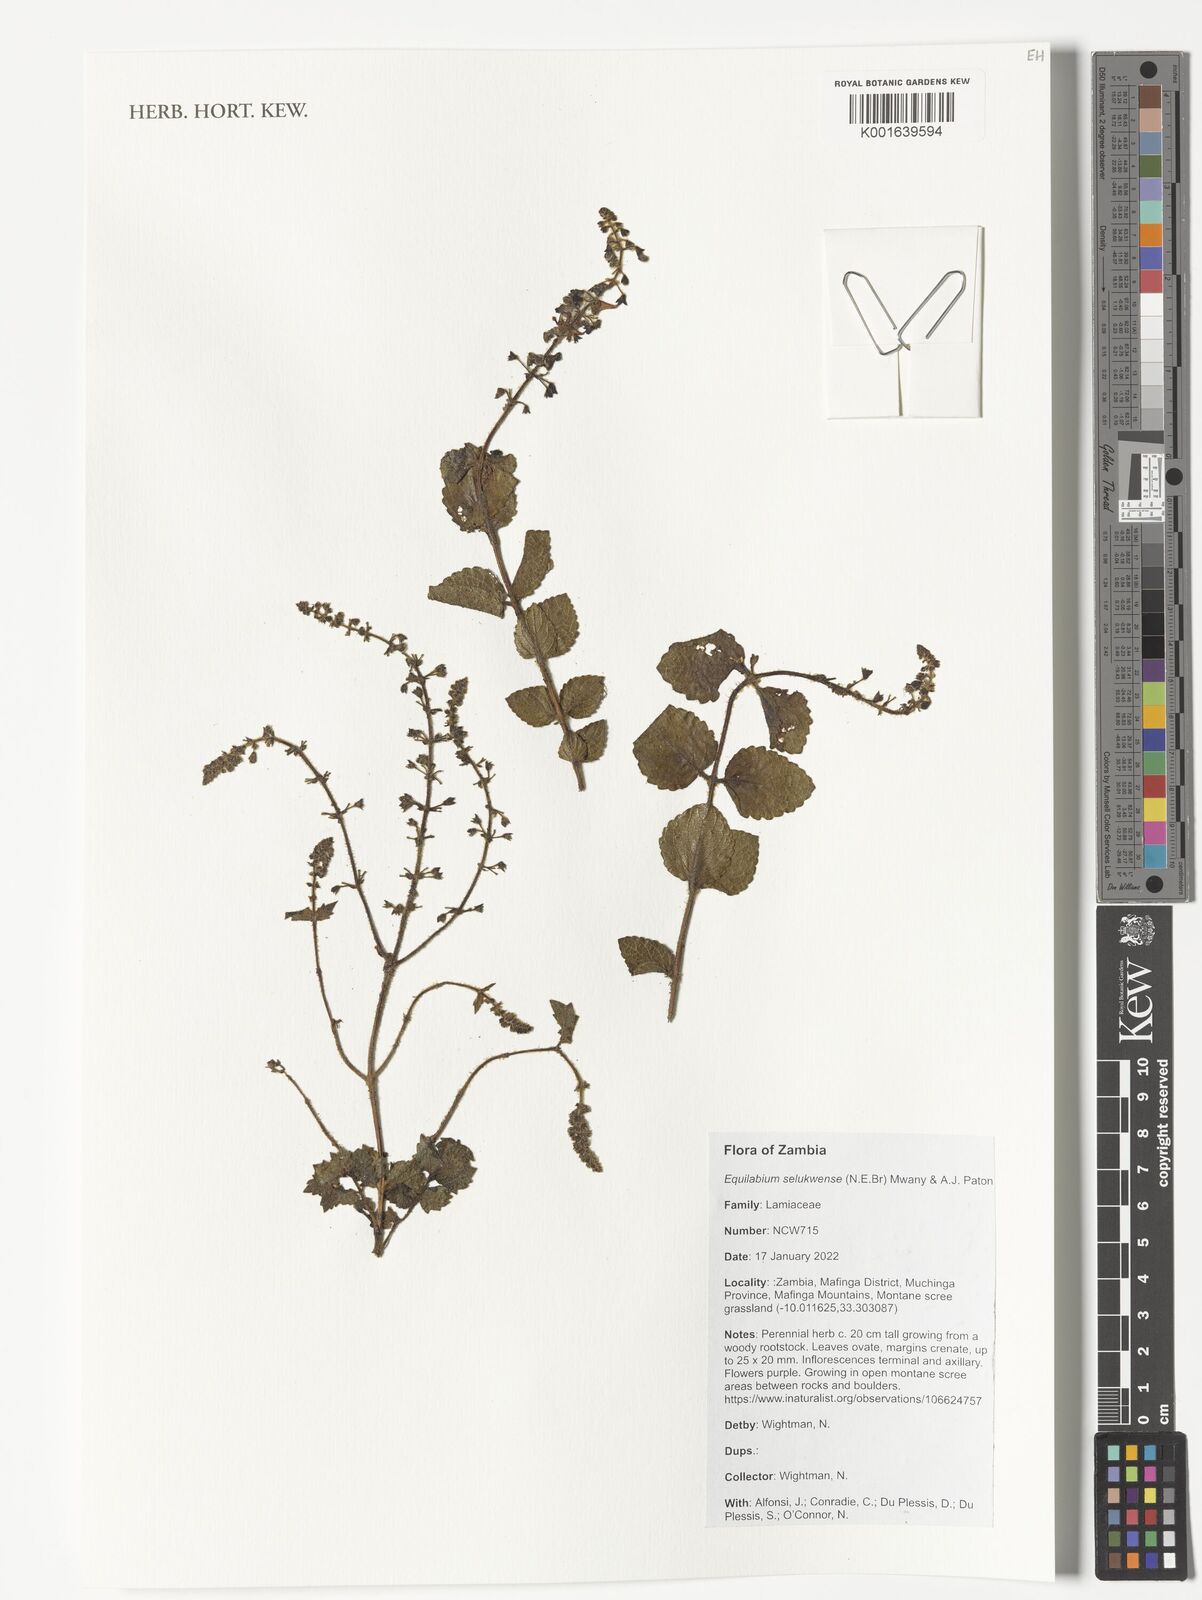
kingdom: Plantae
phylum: Tracheophyta
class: Magnoliopsida
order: Lamiales
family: Lamiaceae
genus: Equilabium
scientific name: Equilabium selukwense
